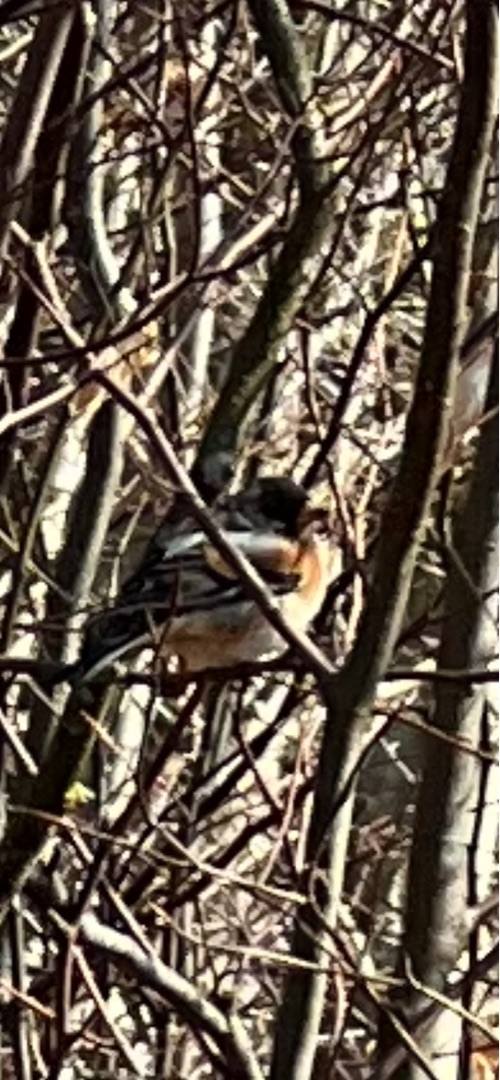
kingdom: Animalia
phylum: Chordata
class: Aves
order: Passeriformes
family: Fringillidae
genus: Fringilla
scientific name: Fringilla montifringilla
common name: Kvækerfinke
